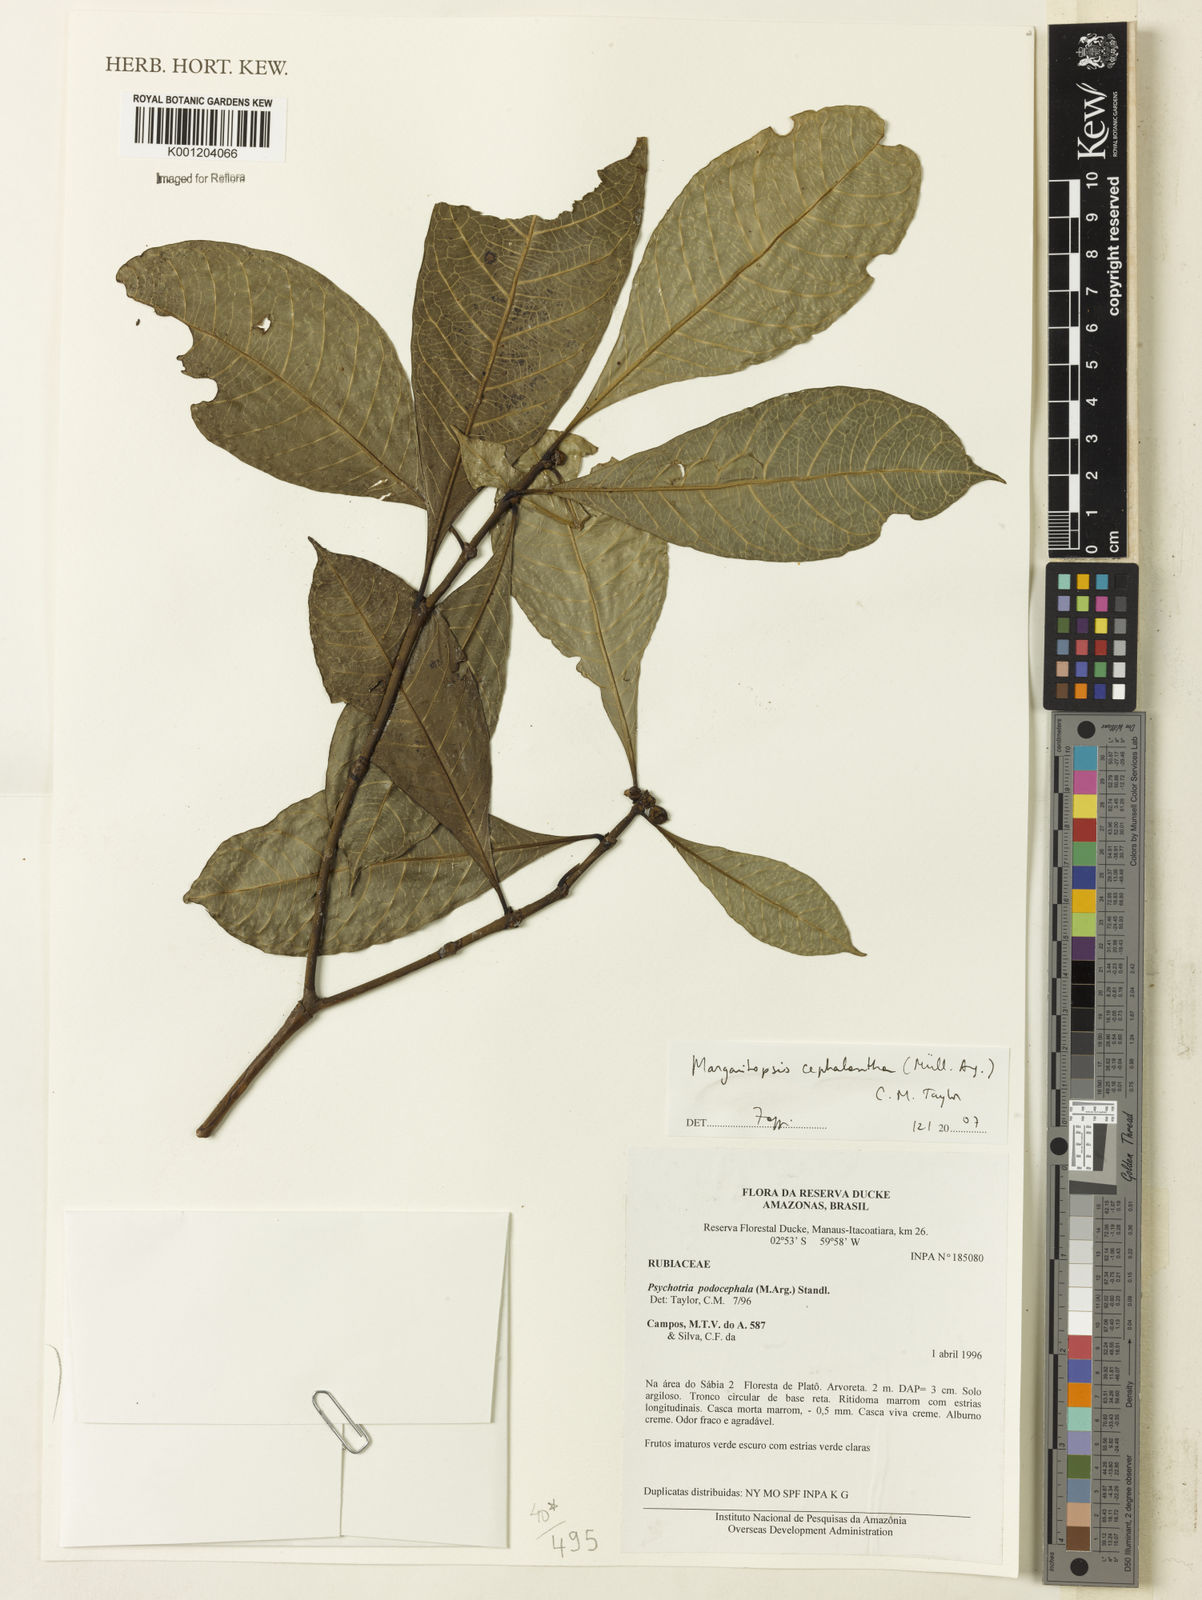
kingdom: Plantae
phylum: Tracheophyta
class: Magnoliopsida
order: Gentianales
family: Rubiaceae
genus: Eumachia
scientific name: Eumachia
